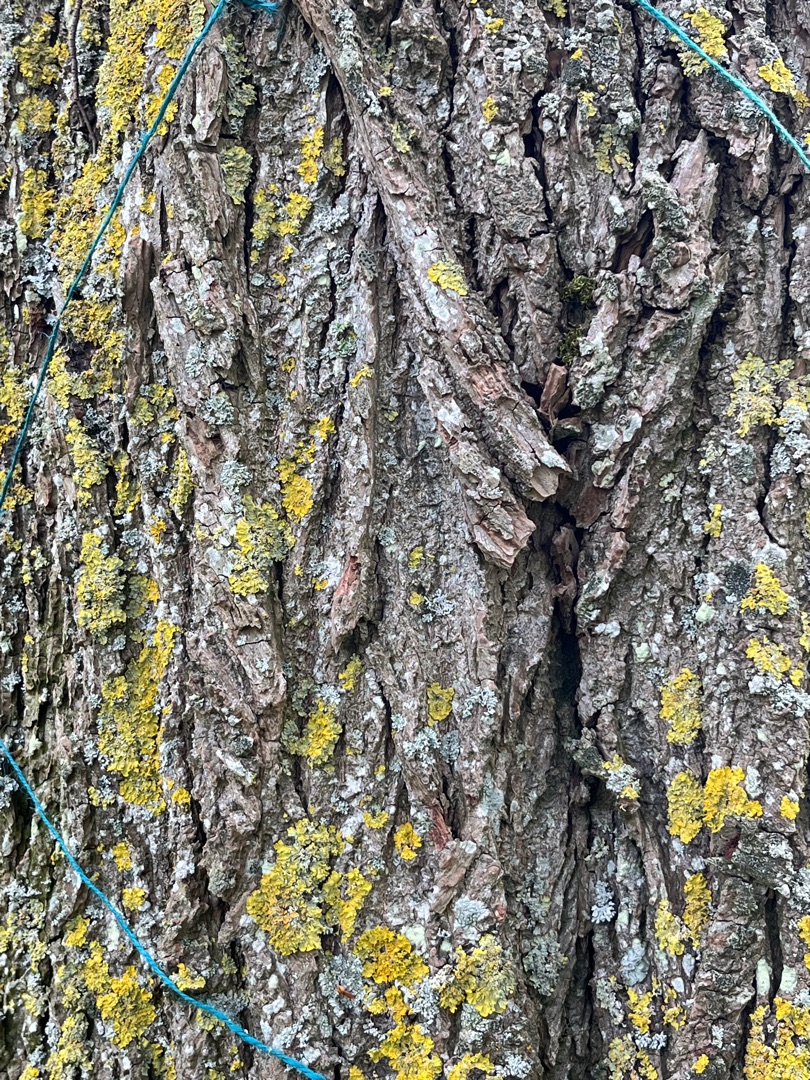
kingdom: Fungi
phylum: Ascomycota
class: Lecanoromycetes
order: Teloschistales
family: Teloschistaceae
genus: Xanthoria
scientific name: Xanthoria parietina
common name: Almindelig væggelav
